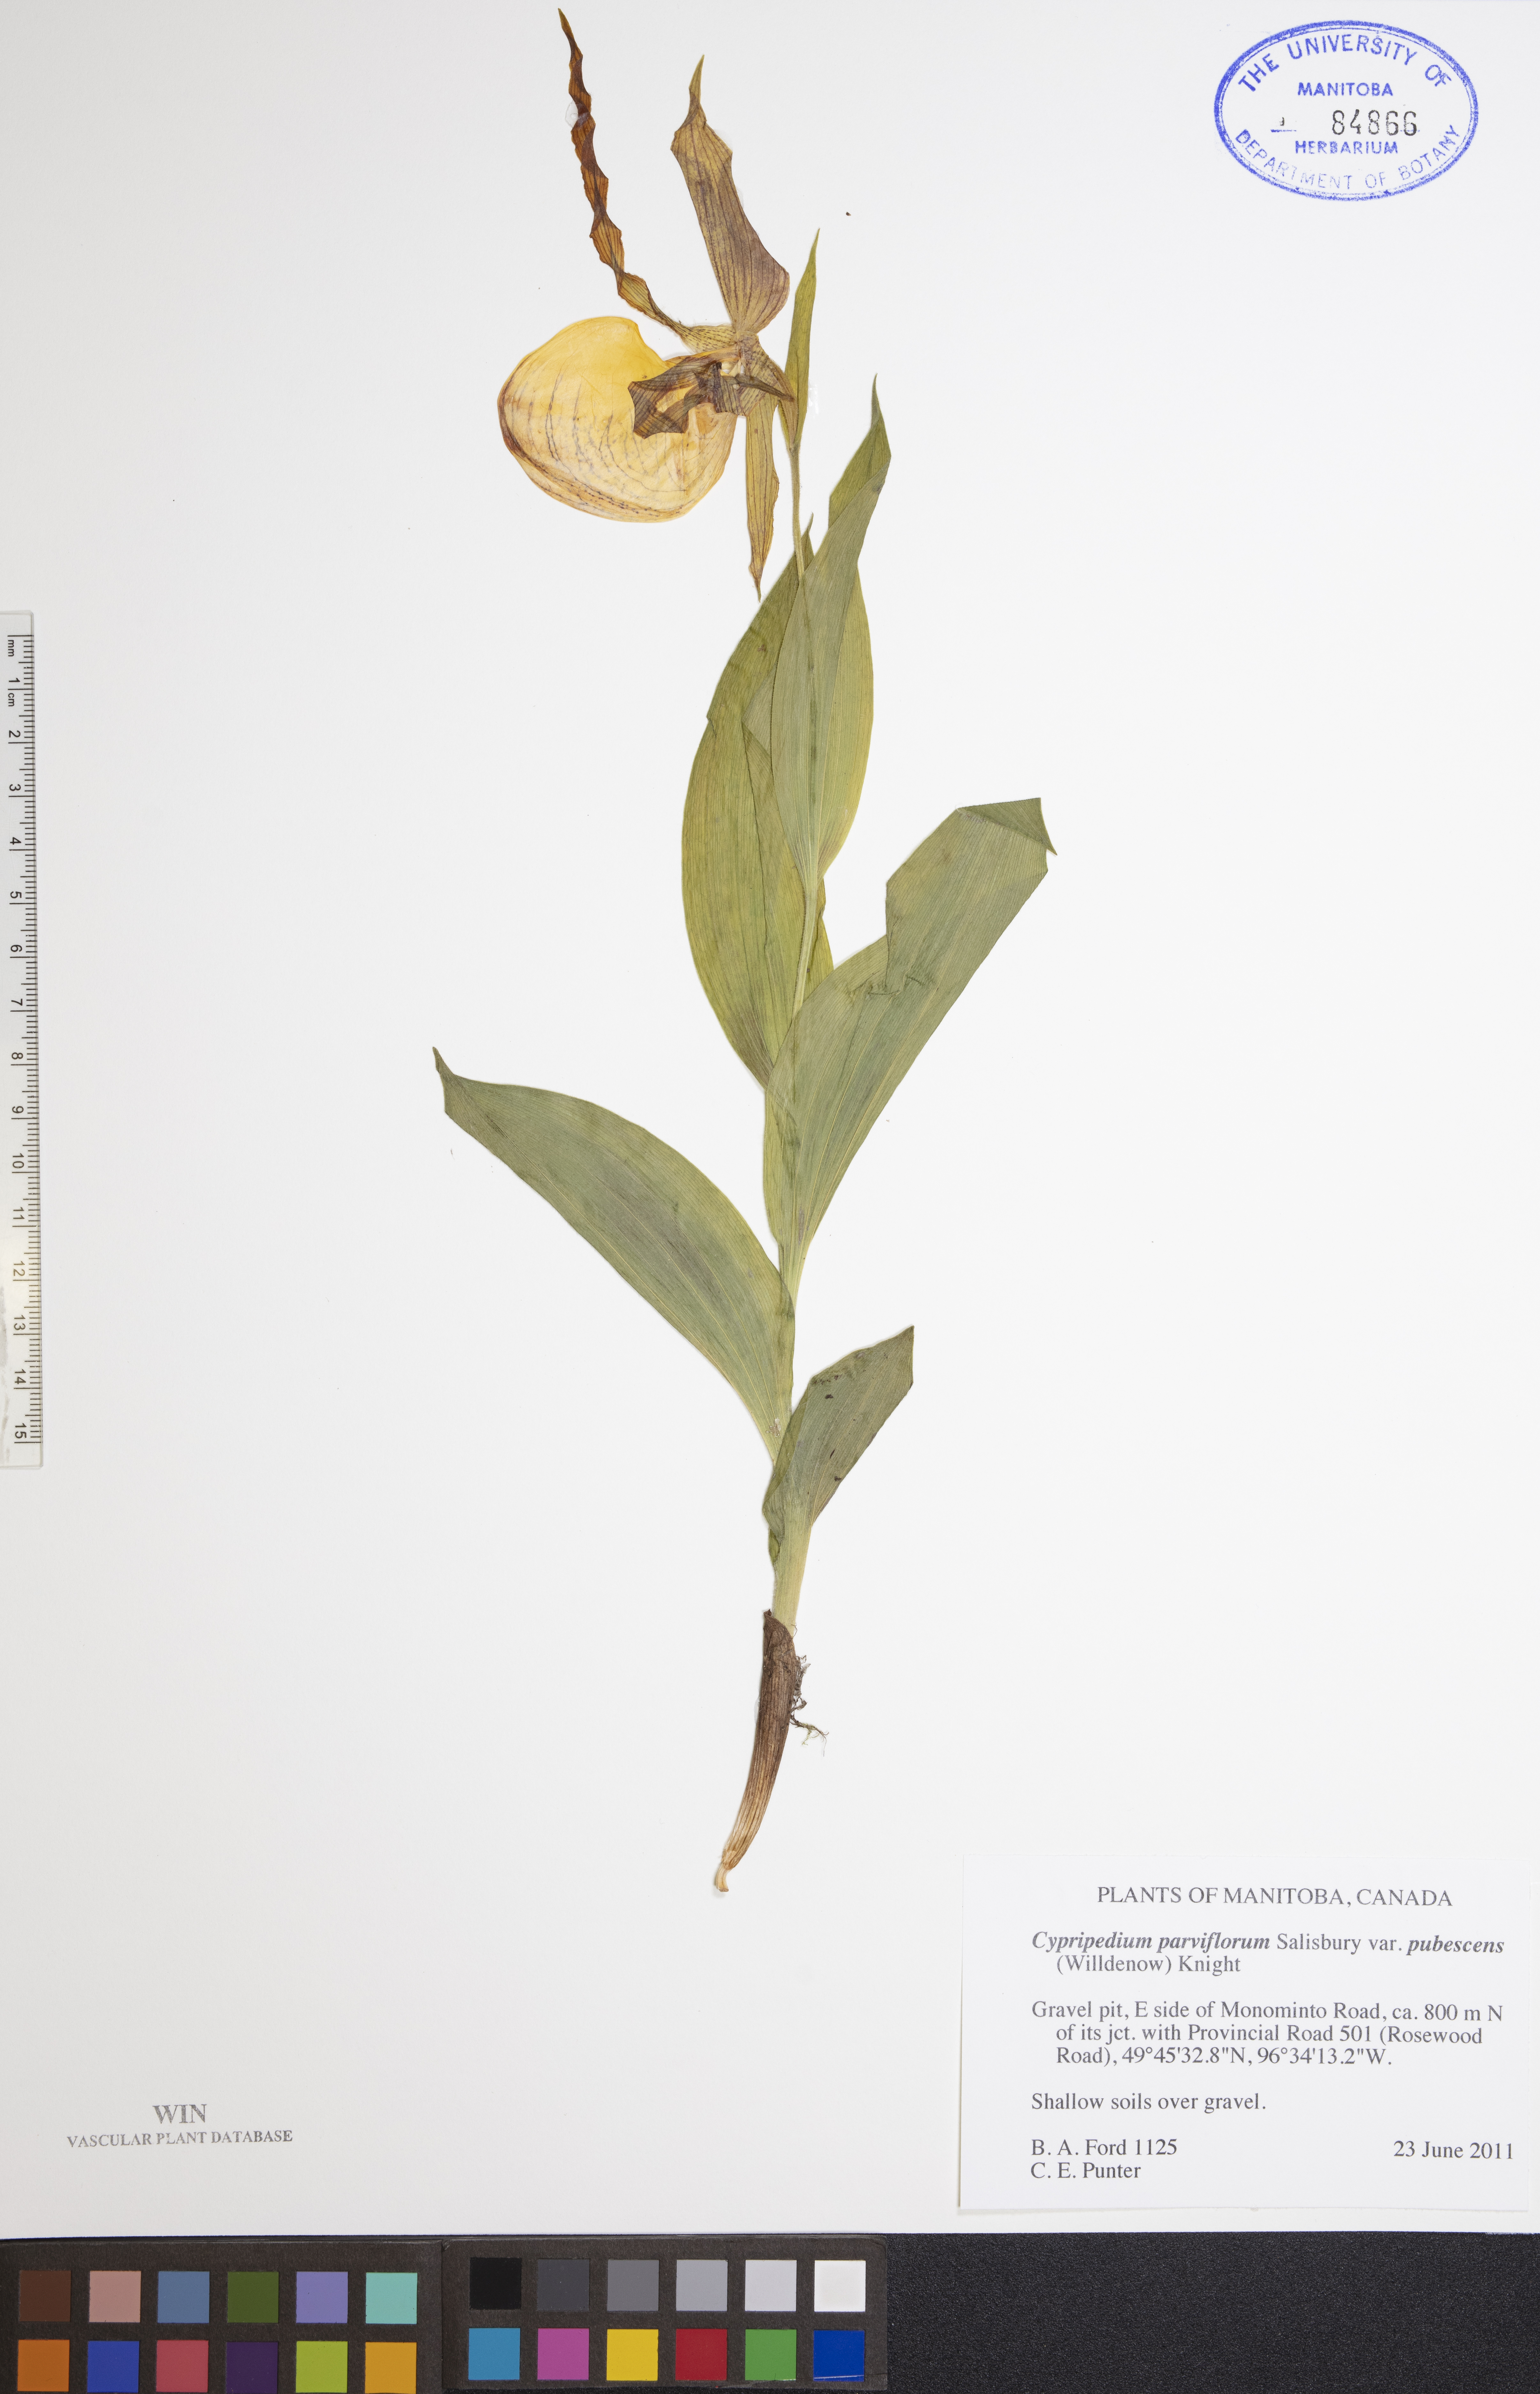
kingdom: Plantae
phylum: Tracheophyta
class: Liliopsida
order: Asparagales
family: Orchidaceae
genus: Cypripedium
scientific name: Cypripedium parviflorum
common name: American yellow lady's-slipper
